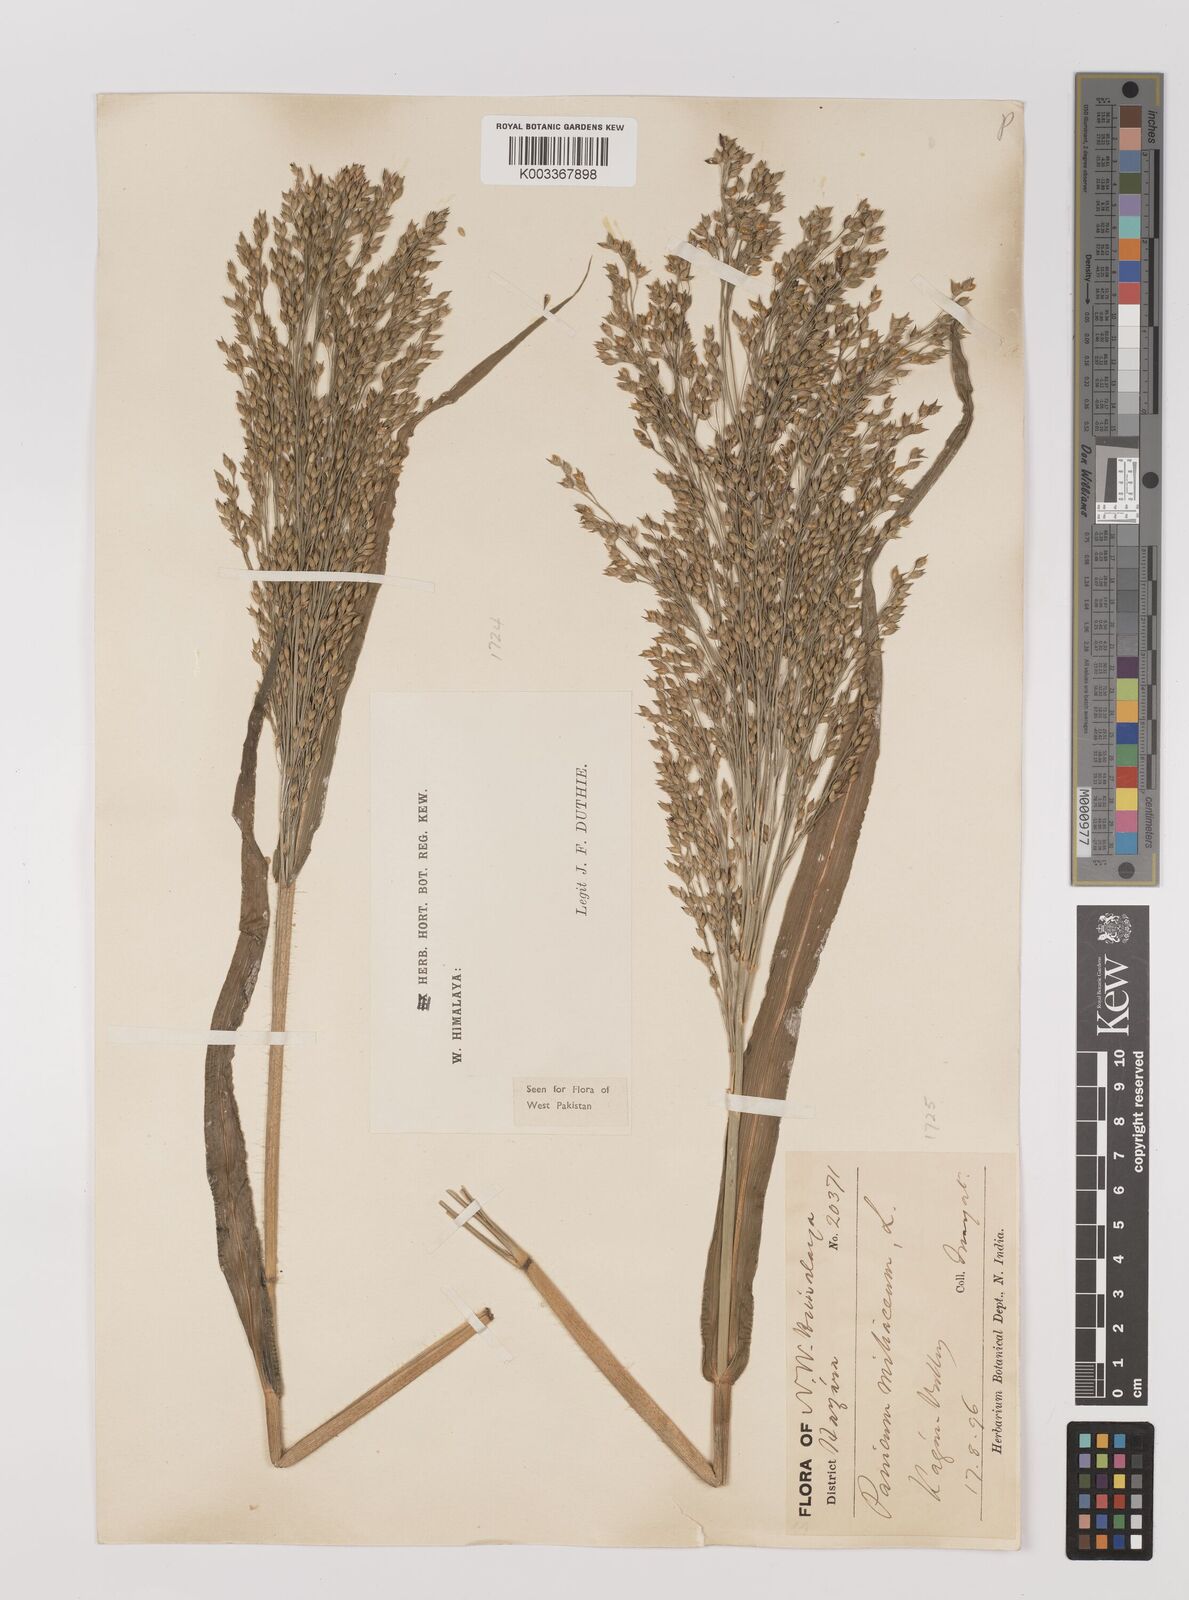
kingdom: Plantae
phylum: Tracheophyta
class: Liliopsida
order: Poales
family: Poaceae
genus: Panicum
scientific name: Panicum miliaceum
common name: Common millet
